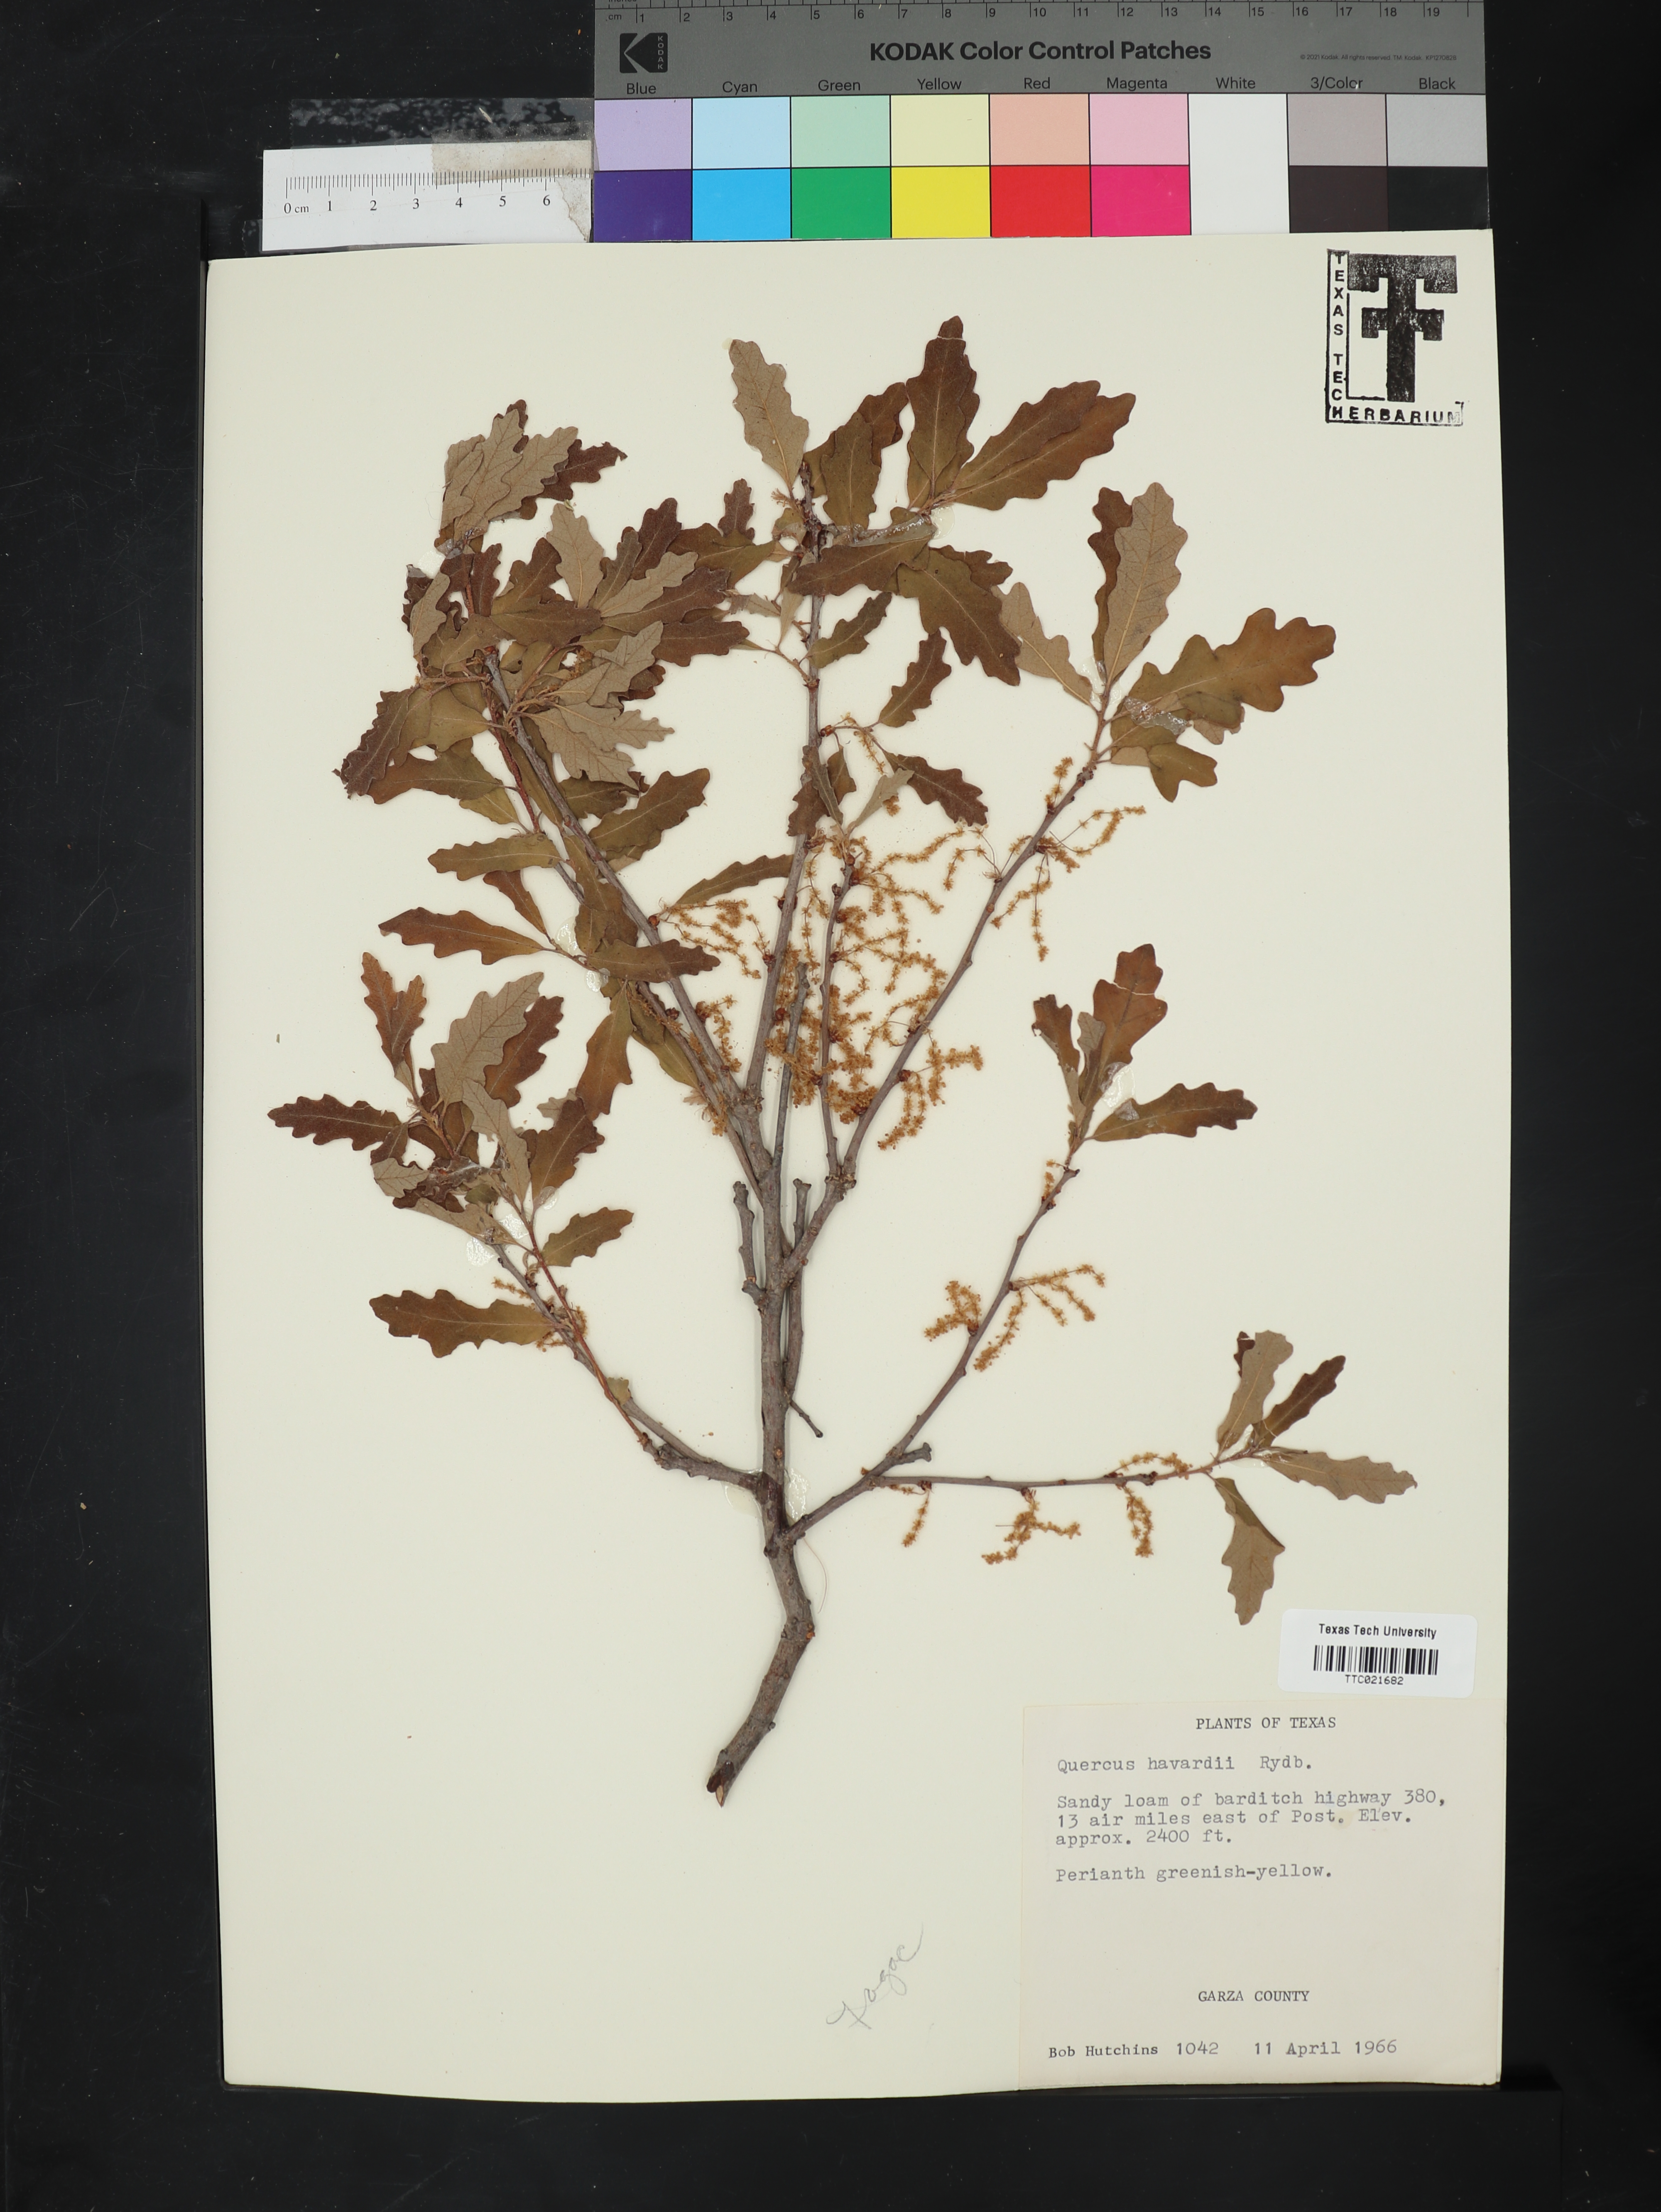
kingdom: Plantae
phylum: Tracheophyta
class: Magnoliopsida
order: Fagales
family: Fagaceae
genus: Quercus
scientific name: Quercus havardii
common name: Shinnery oak
